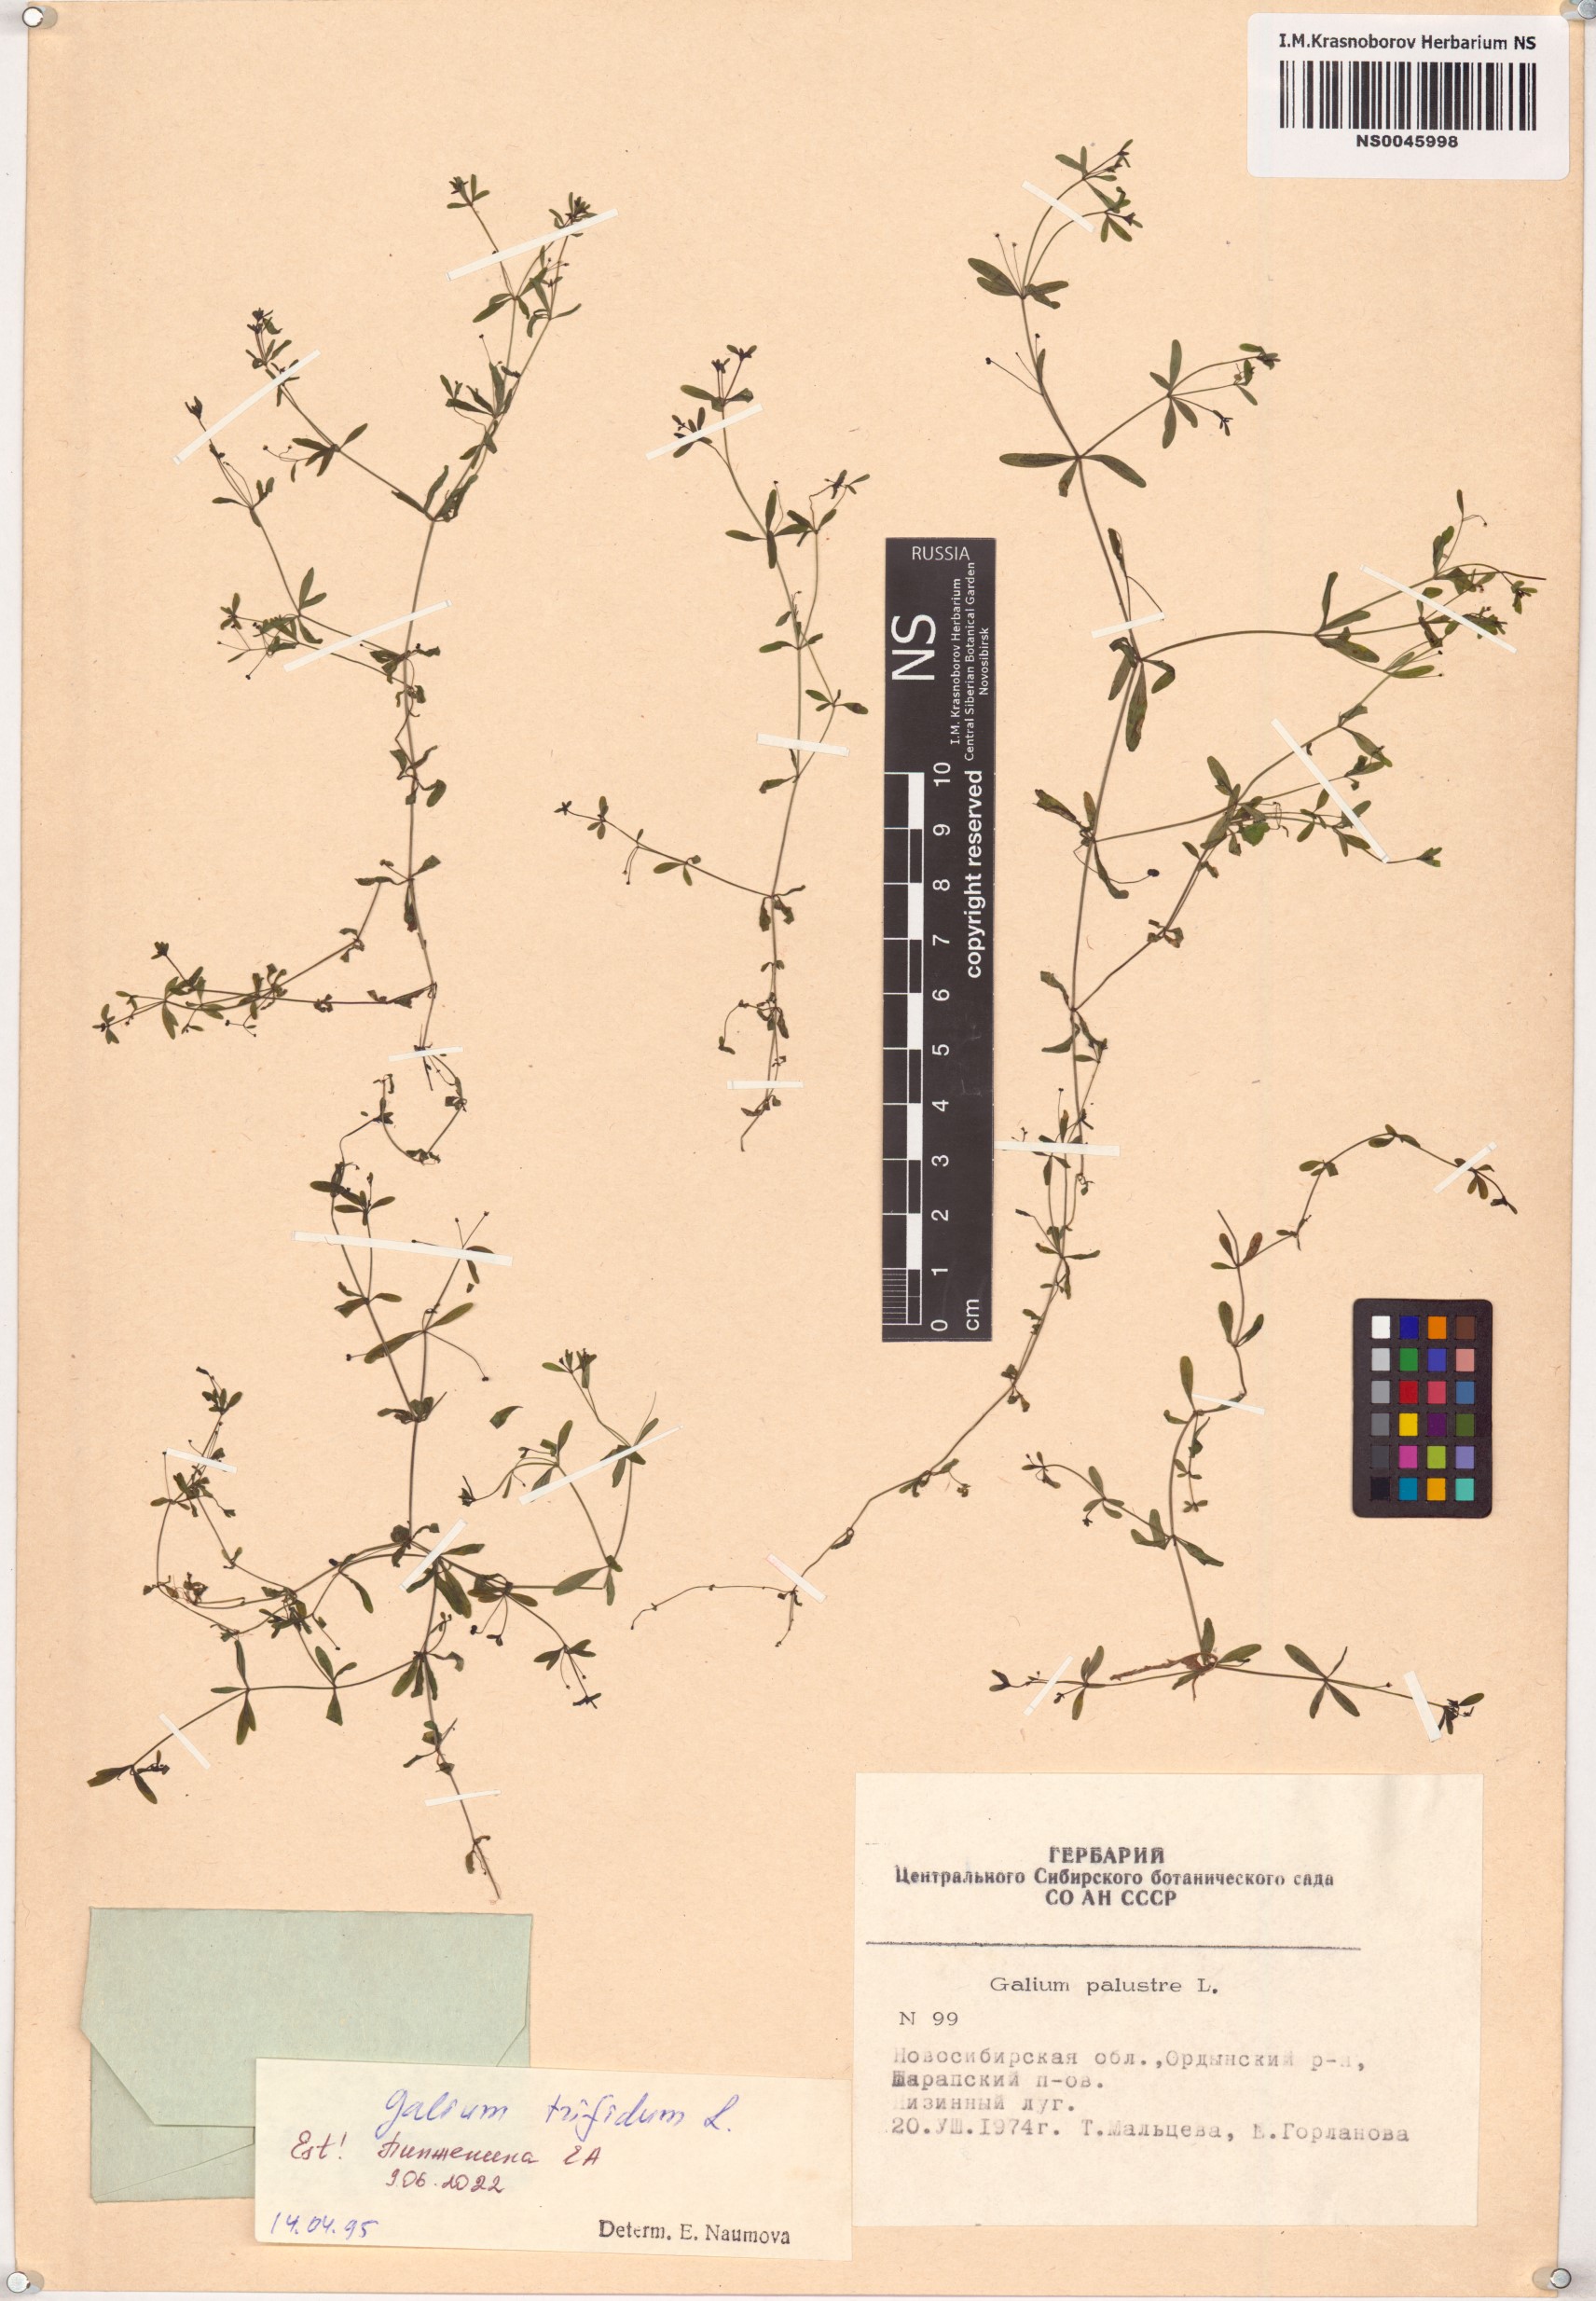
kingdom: Plantae
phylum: Tracheophyta
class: Magnoliopsida
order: Gentianales
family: Rubiaceae
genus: Galium
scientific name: Galium trifidum
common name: Small bedstraw
